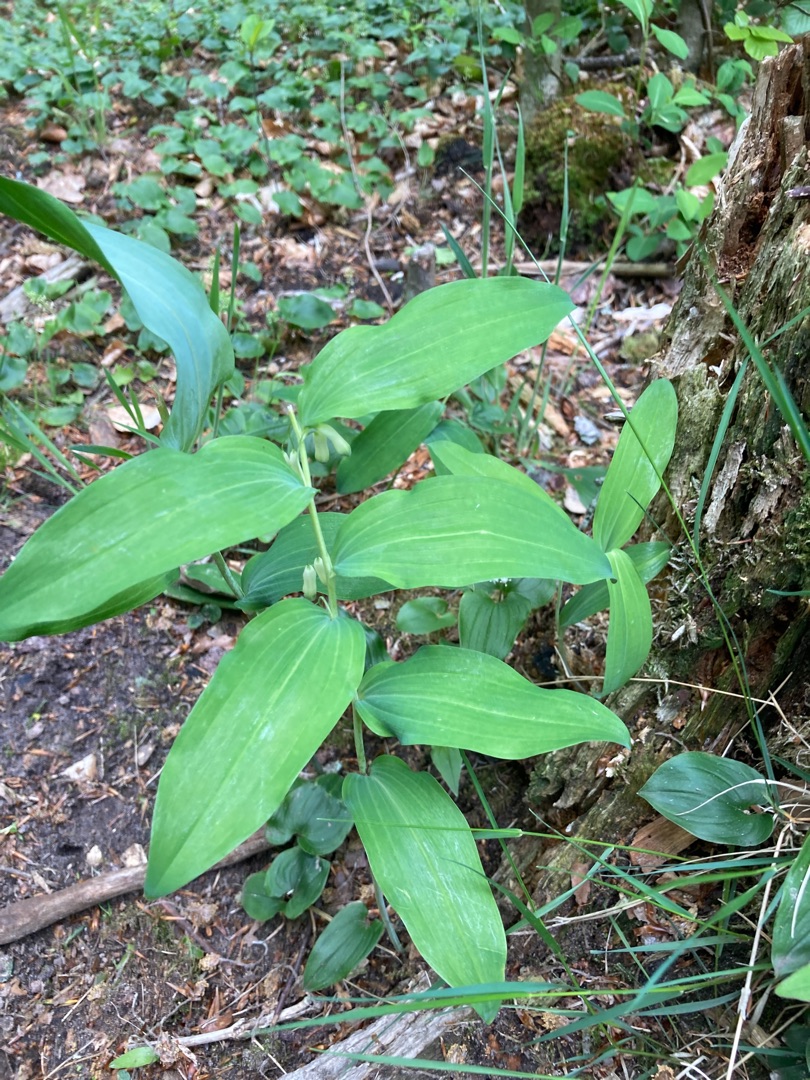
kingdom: Plantae
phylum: Tracheophyta
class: Liliopsida
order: Asparagales
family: Asparagaceae
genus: Polygonatum
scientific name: Polygonatum multiflorum
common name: Stor konval
